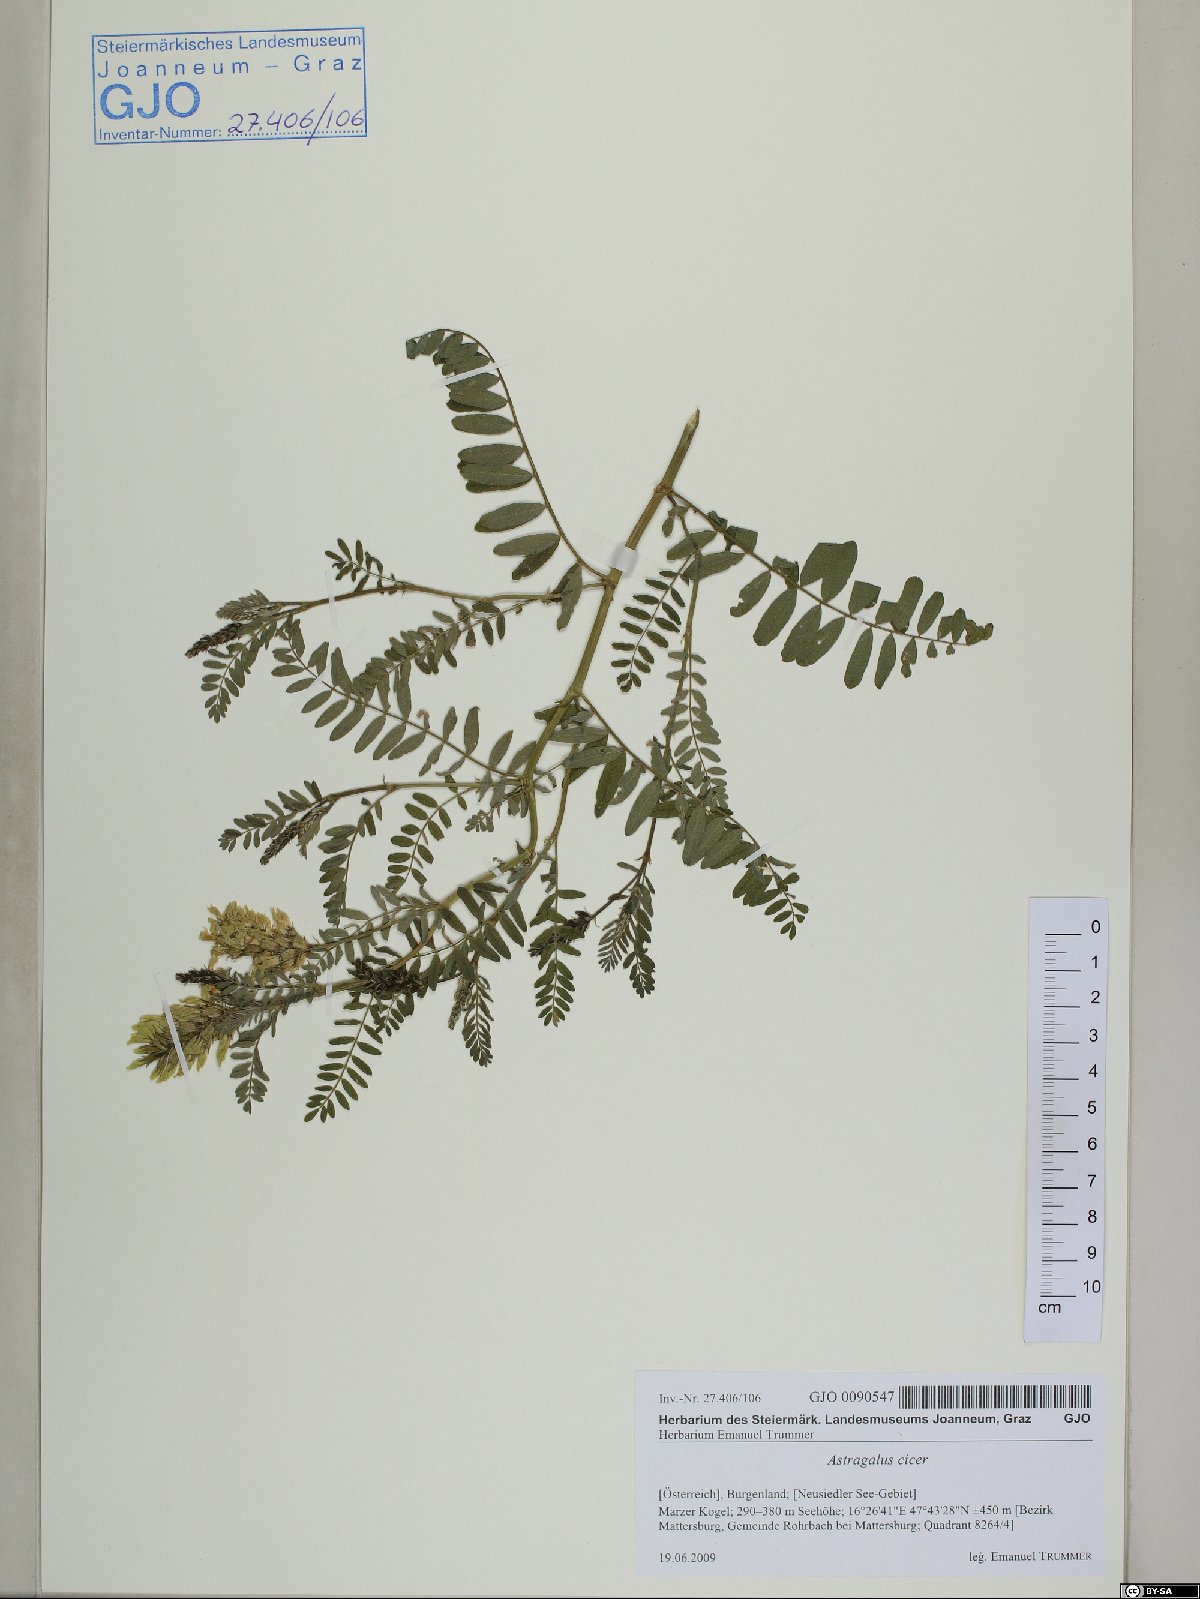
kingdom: Plantae
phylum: Tracheophyta
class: Magnoliopsida
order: Fabales
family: Fabaceae
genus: Astragalus
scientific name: Astragalus cicer
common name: Chick-pea milk-vetch
